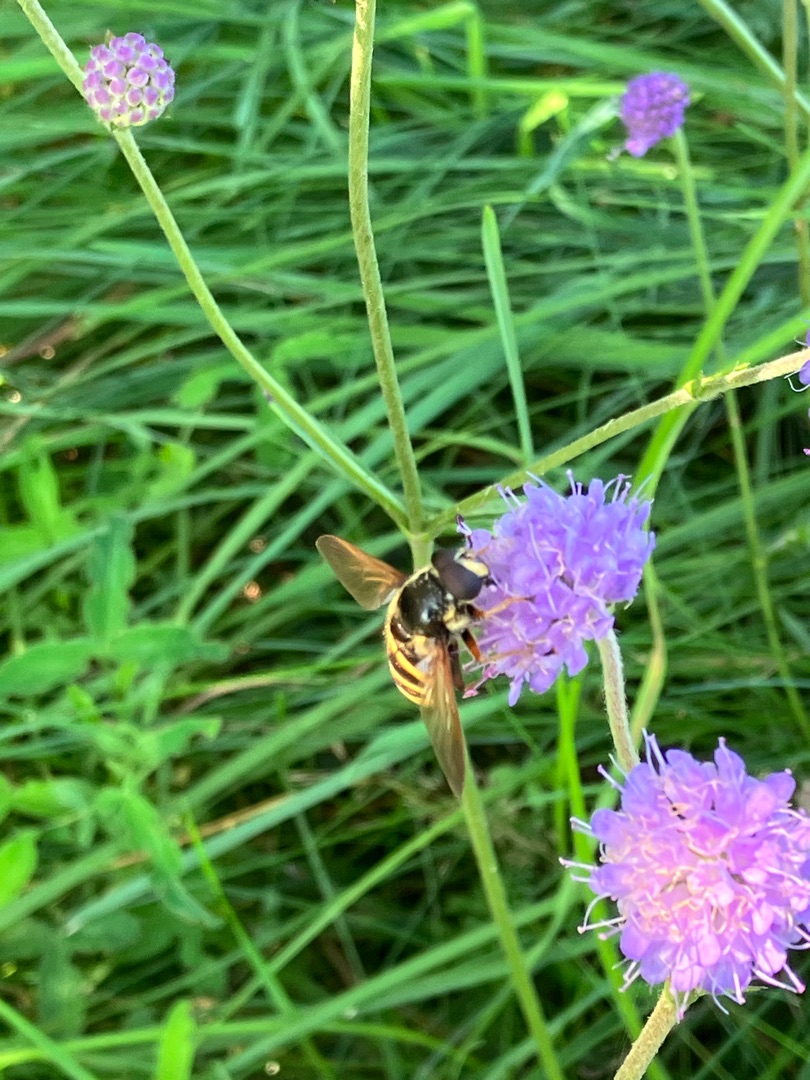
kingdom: Animalia
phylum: Arthropoda
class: Insecta
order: Diptera
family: Syrphidae
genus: Sericomyia
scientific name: Sericomyia silentis
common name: Tørve-silkesvirreflue
